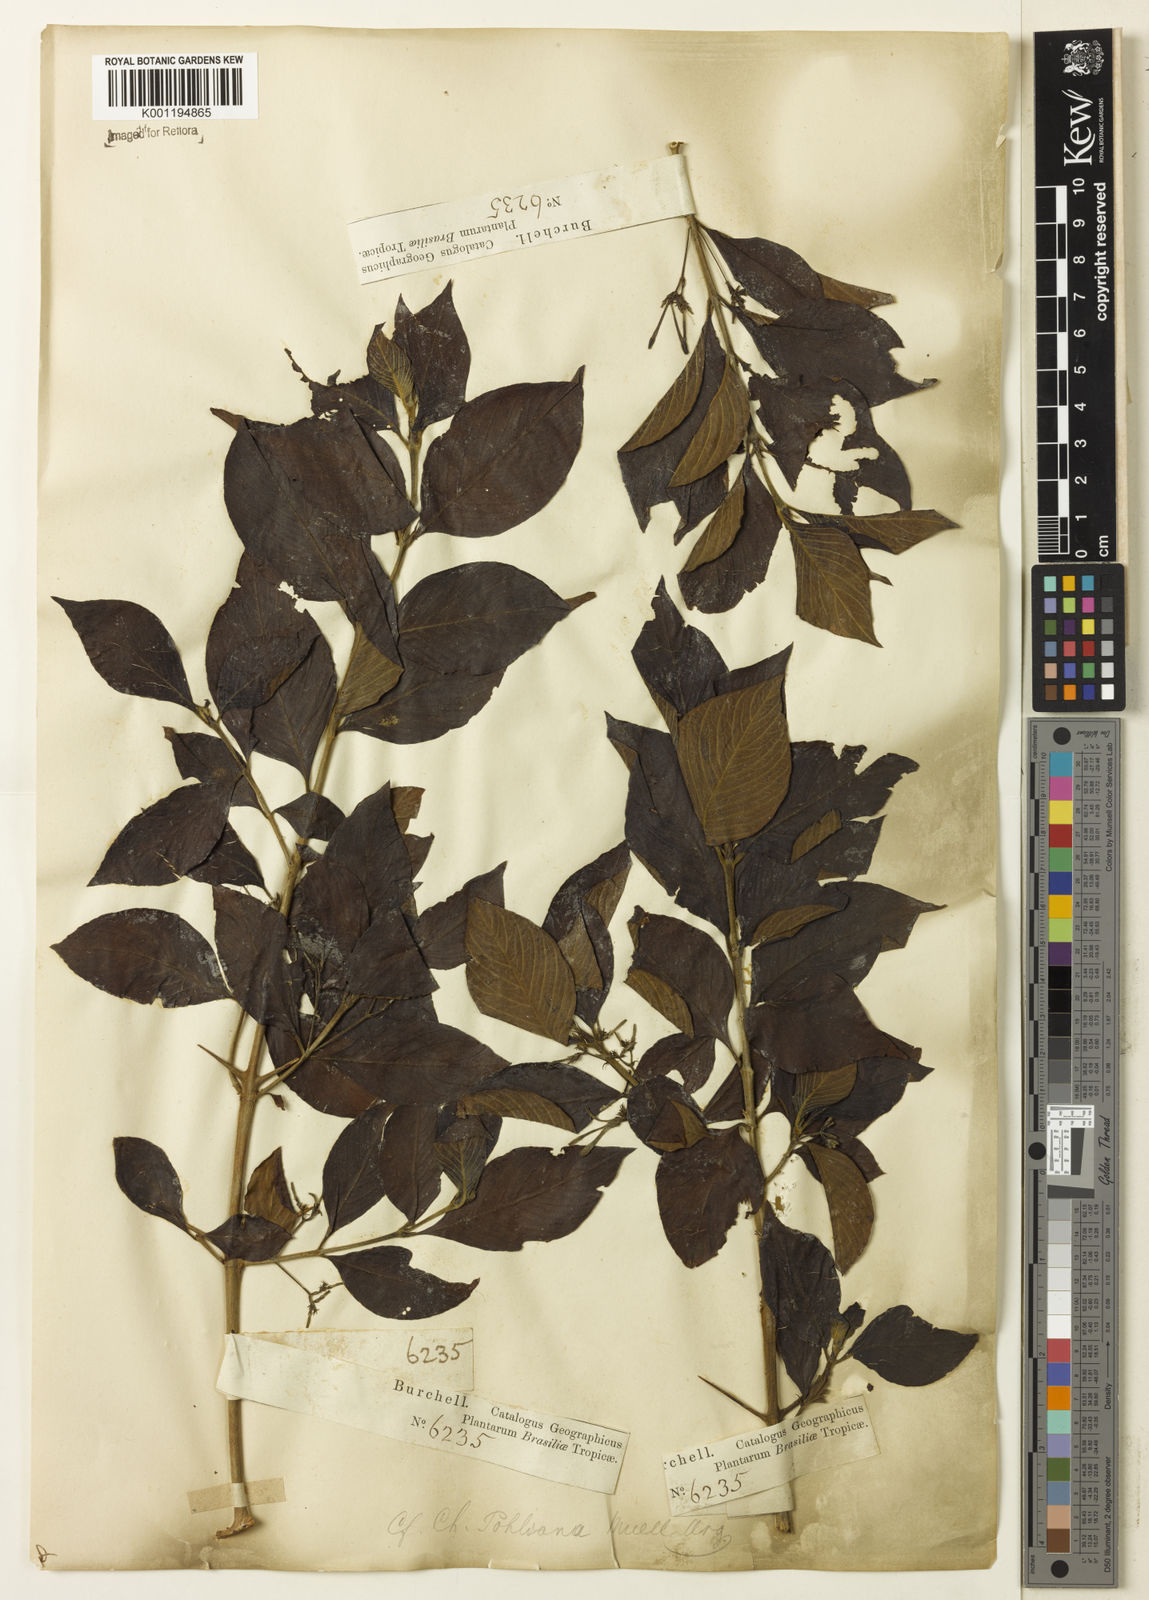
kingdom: Plantae
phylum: Tracheophyta
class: Magnoliopsida
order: Gentianales
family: Rubiaceae
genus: Chomelia
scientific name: Chomelia
